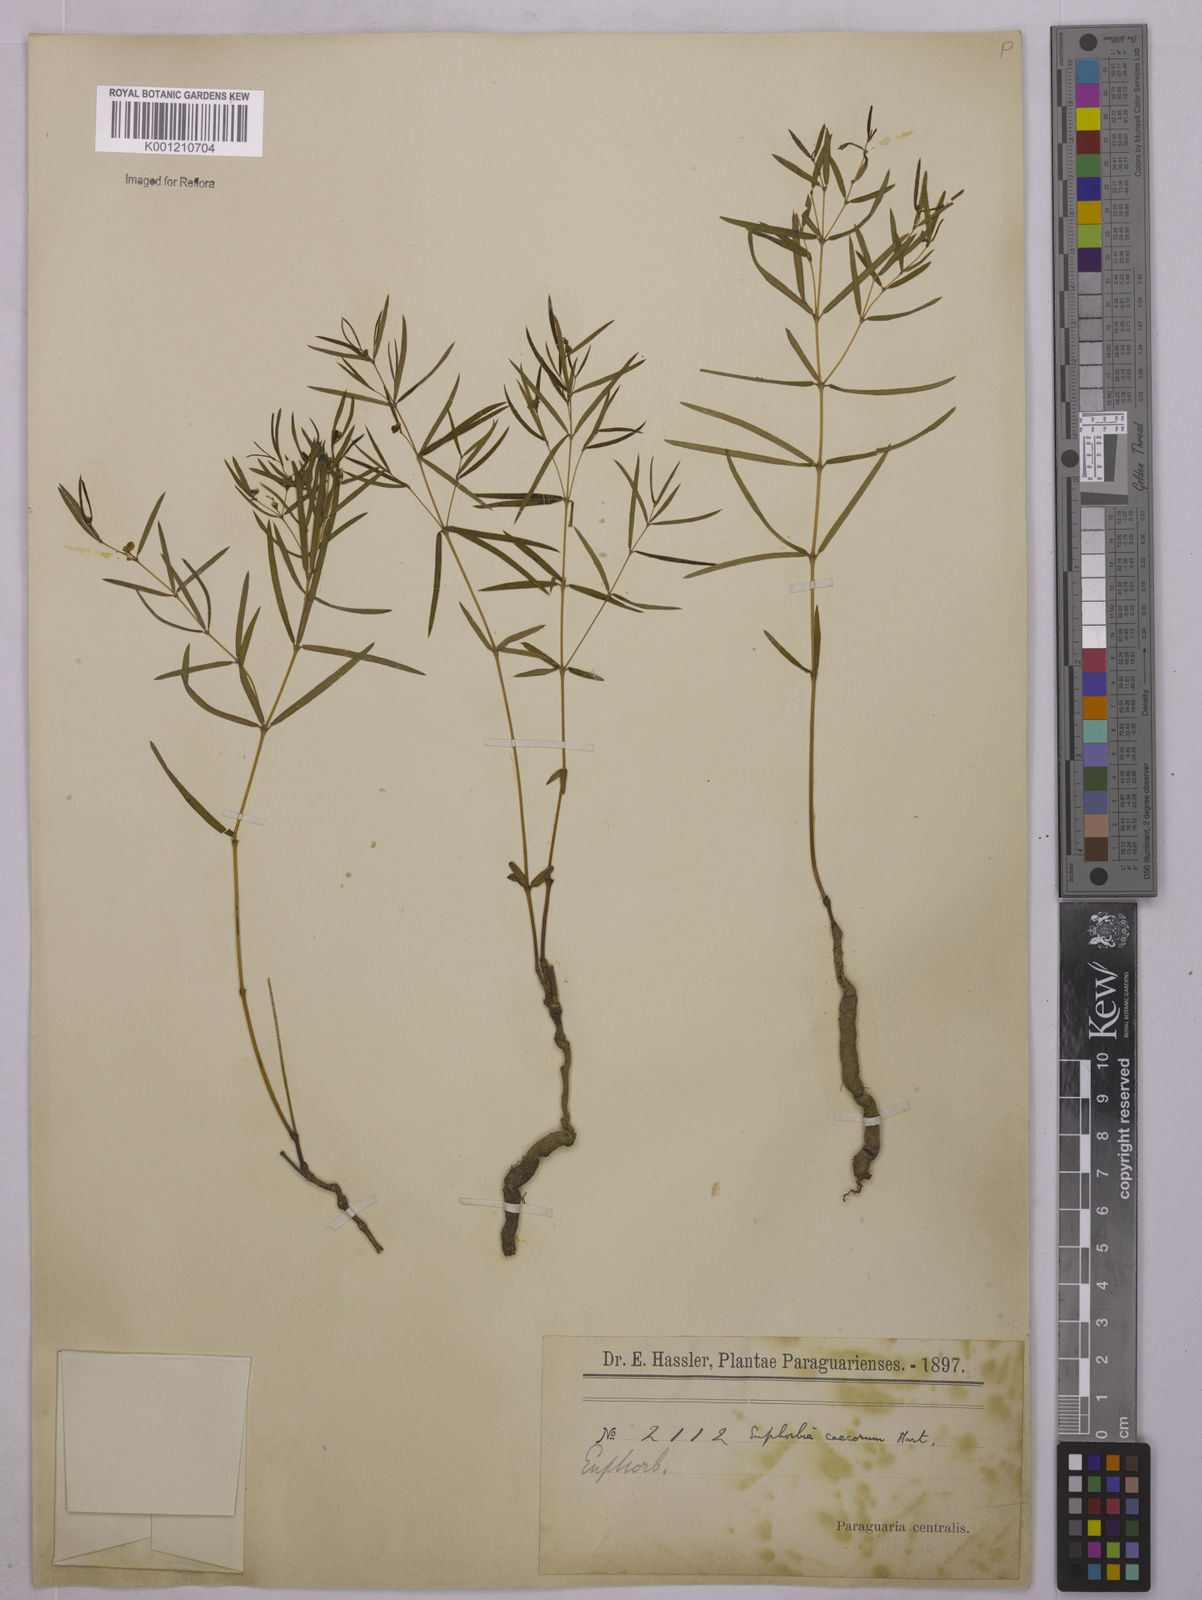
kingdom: Plantae
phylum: Tracheophyta
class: Magnoliopsida
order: Malpighiales
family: Euphorbiaceae
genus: Euphorbia
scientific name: Euphorbia potentilloides
